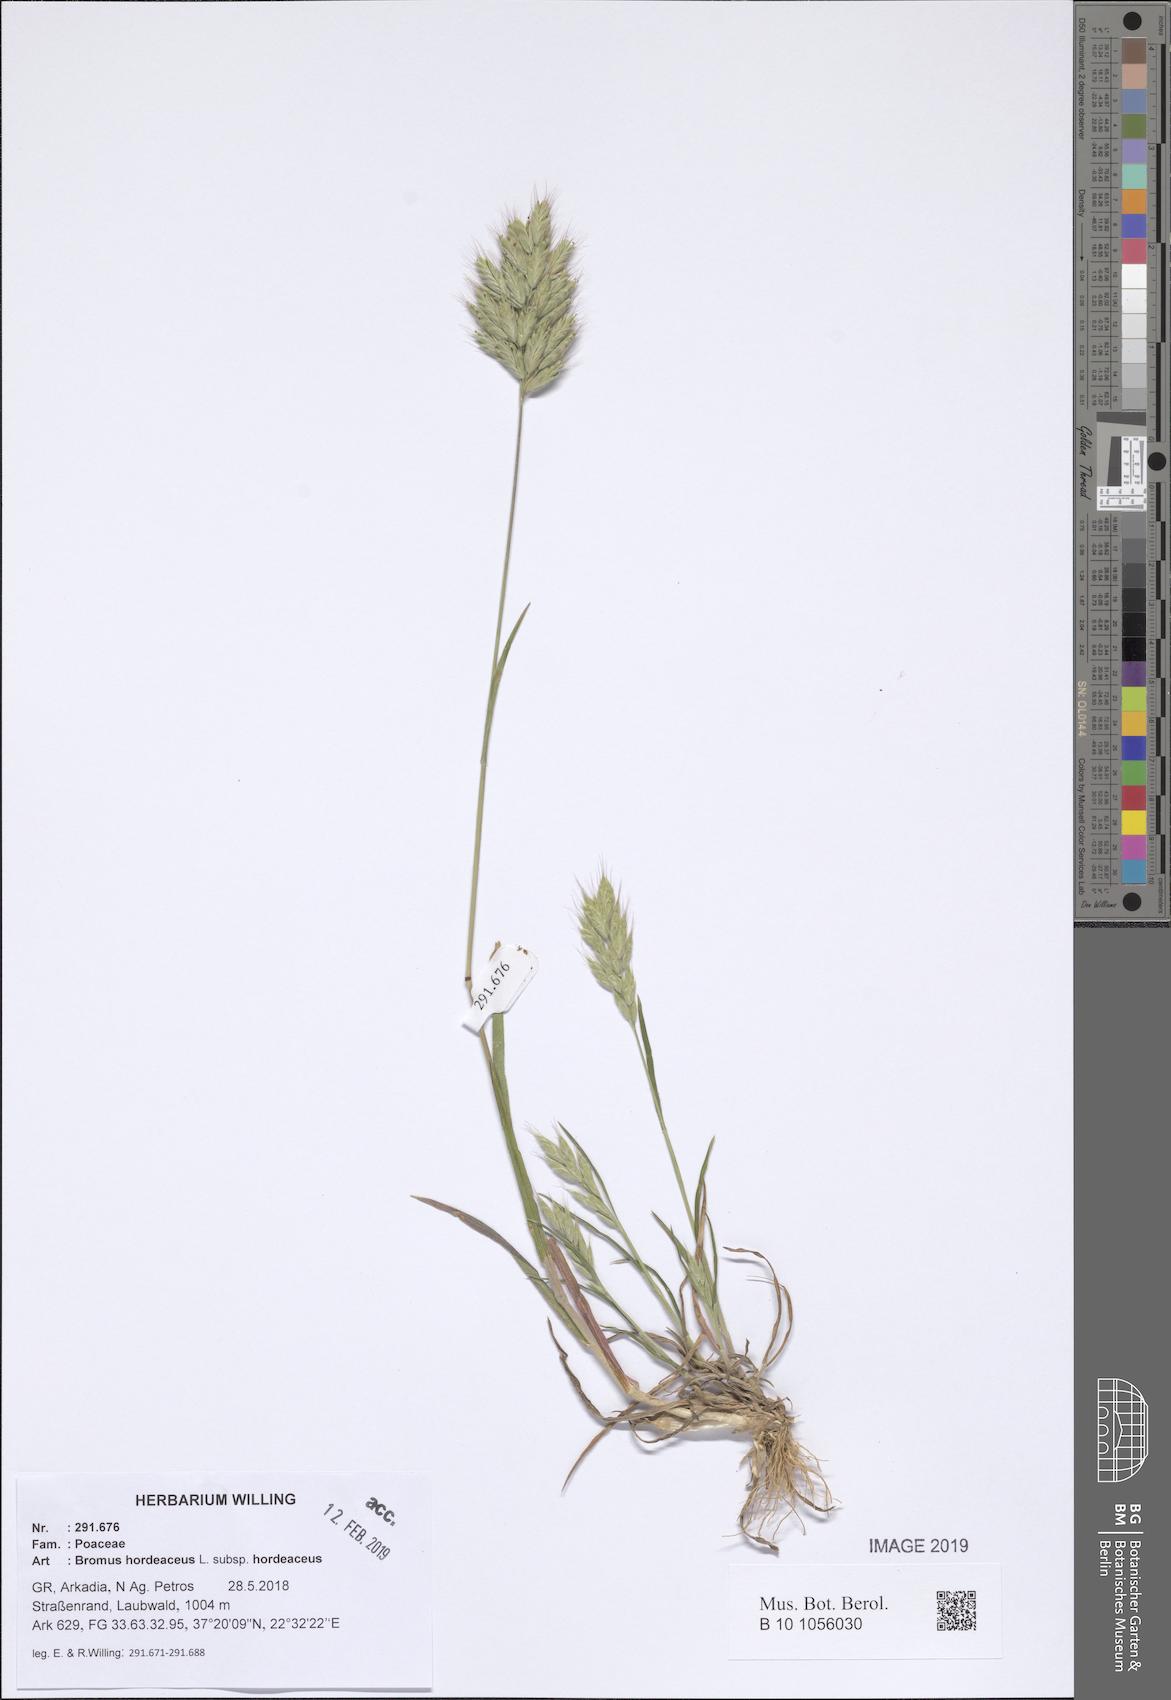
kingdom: Plantae
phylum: Tracheophyta
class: Liliopsida
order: Poales
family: Poaceae
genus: Bromus
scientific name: Bromus hordeaceus
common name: Soft brome
